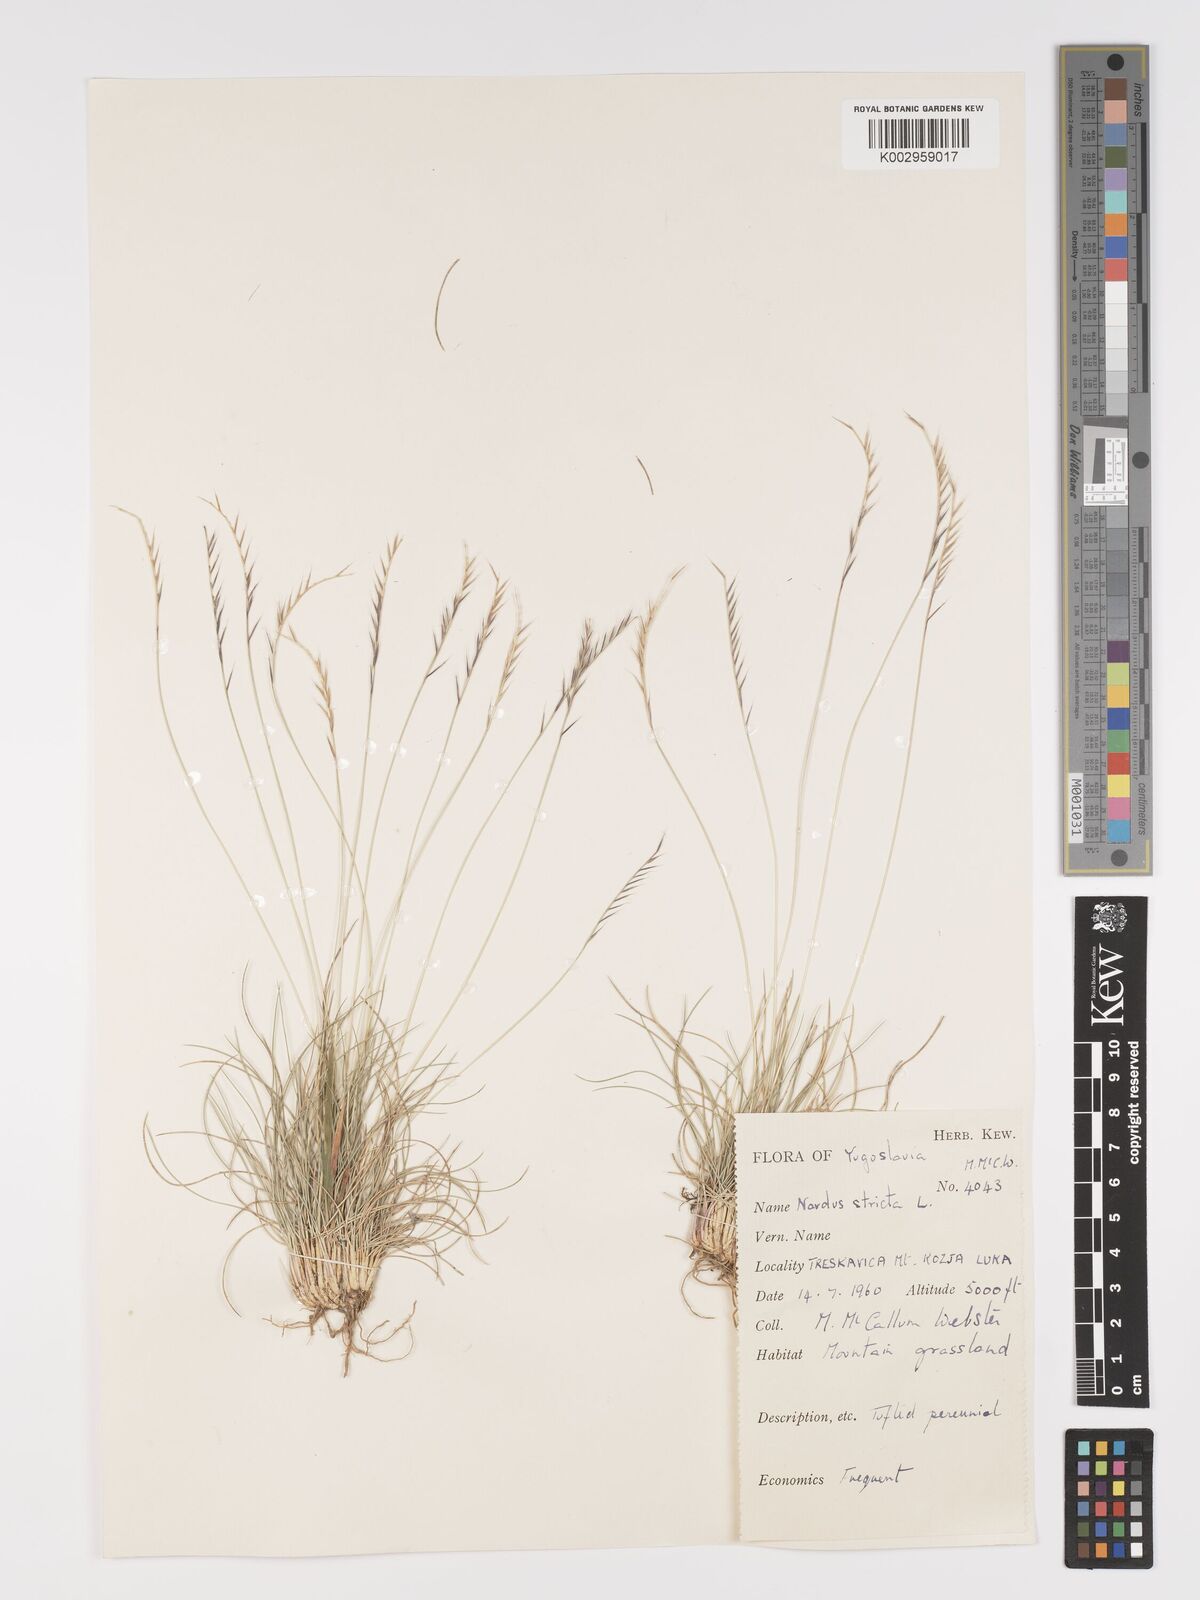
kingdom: Plantae
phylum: Tracheophyta
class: Liliopsida
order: Poales
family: Poaceae
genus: Nardus
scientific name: Nardus stricta
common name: Mat-grass
